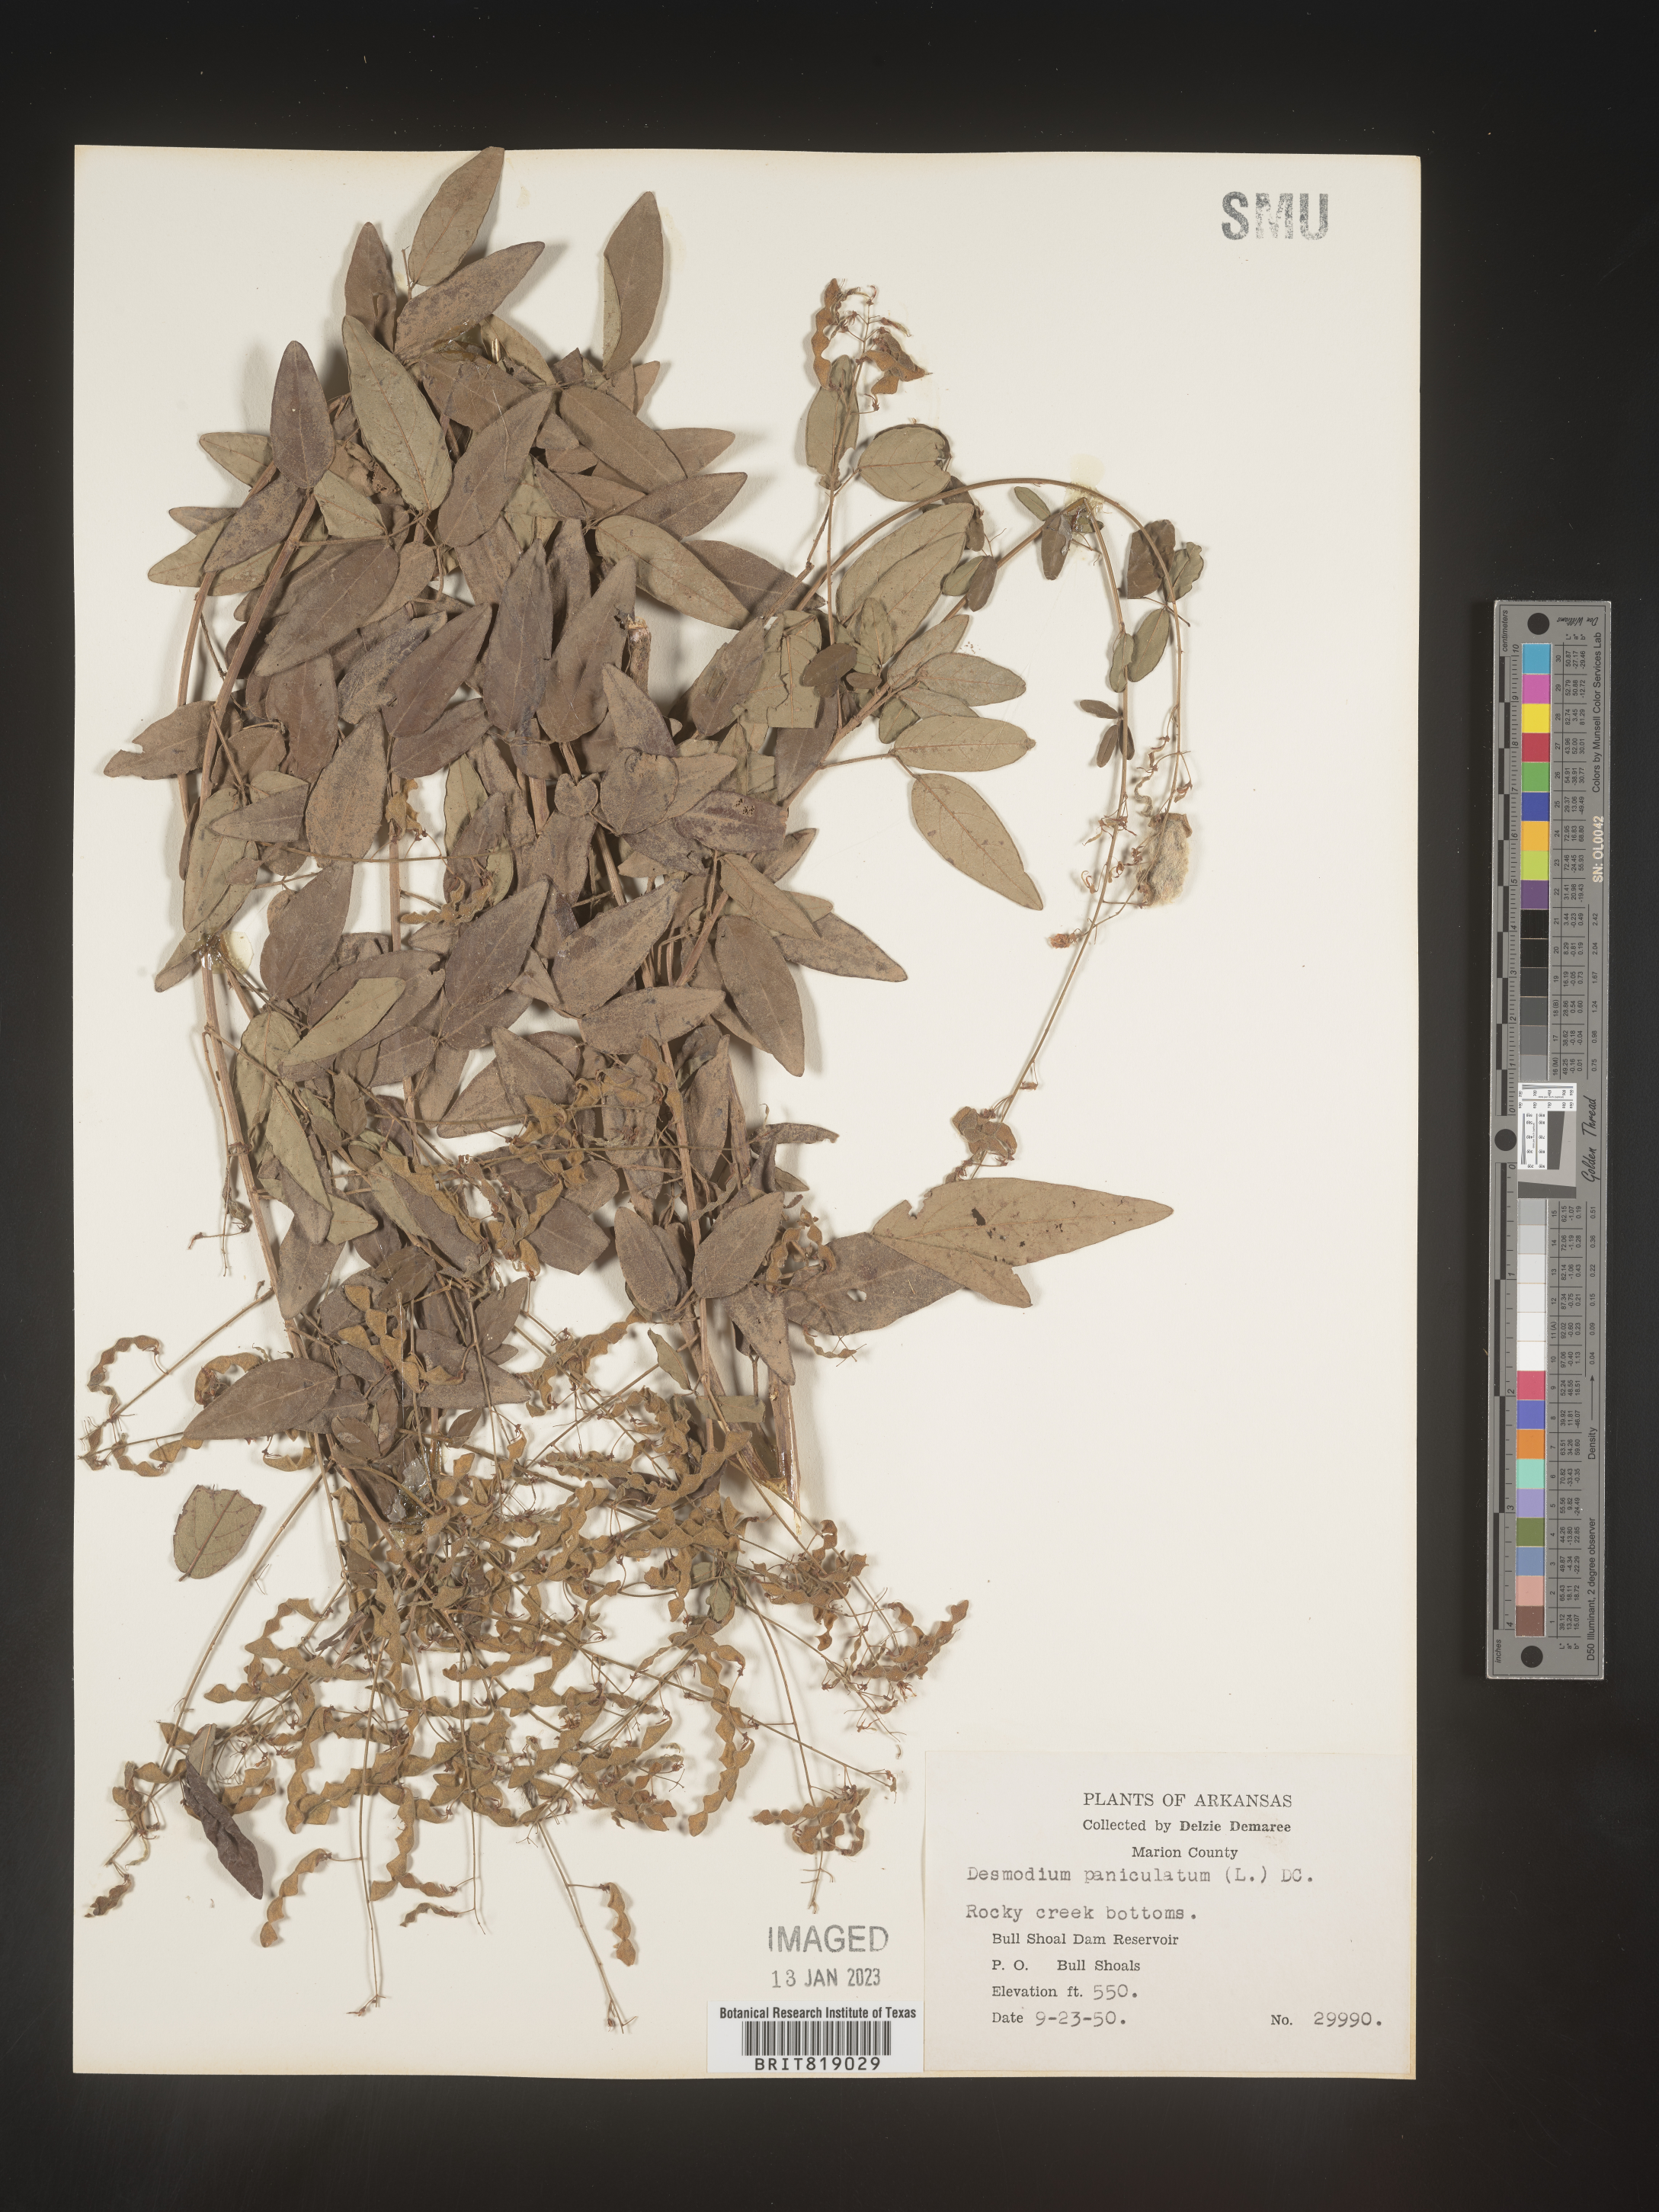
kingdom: Plantae
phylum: Tracheophyta
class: Magnoliopsida
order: Fabales
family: Fabaceae
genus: Desmodium
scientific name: Desmodium paniculatum
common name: Panicled tick-clover
